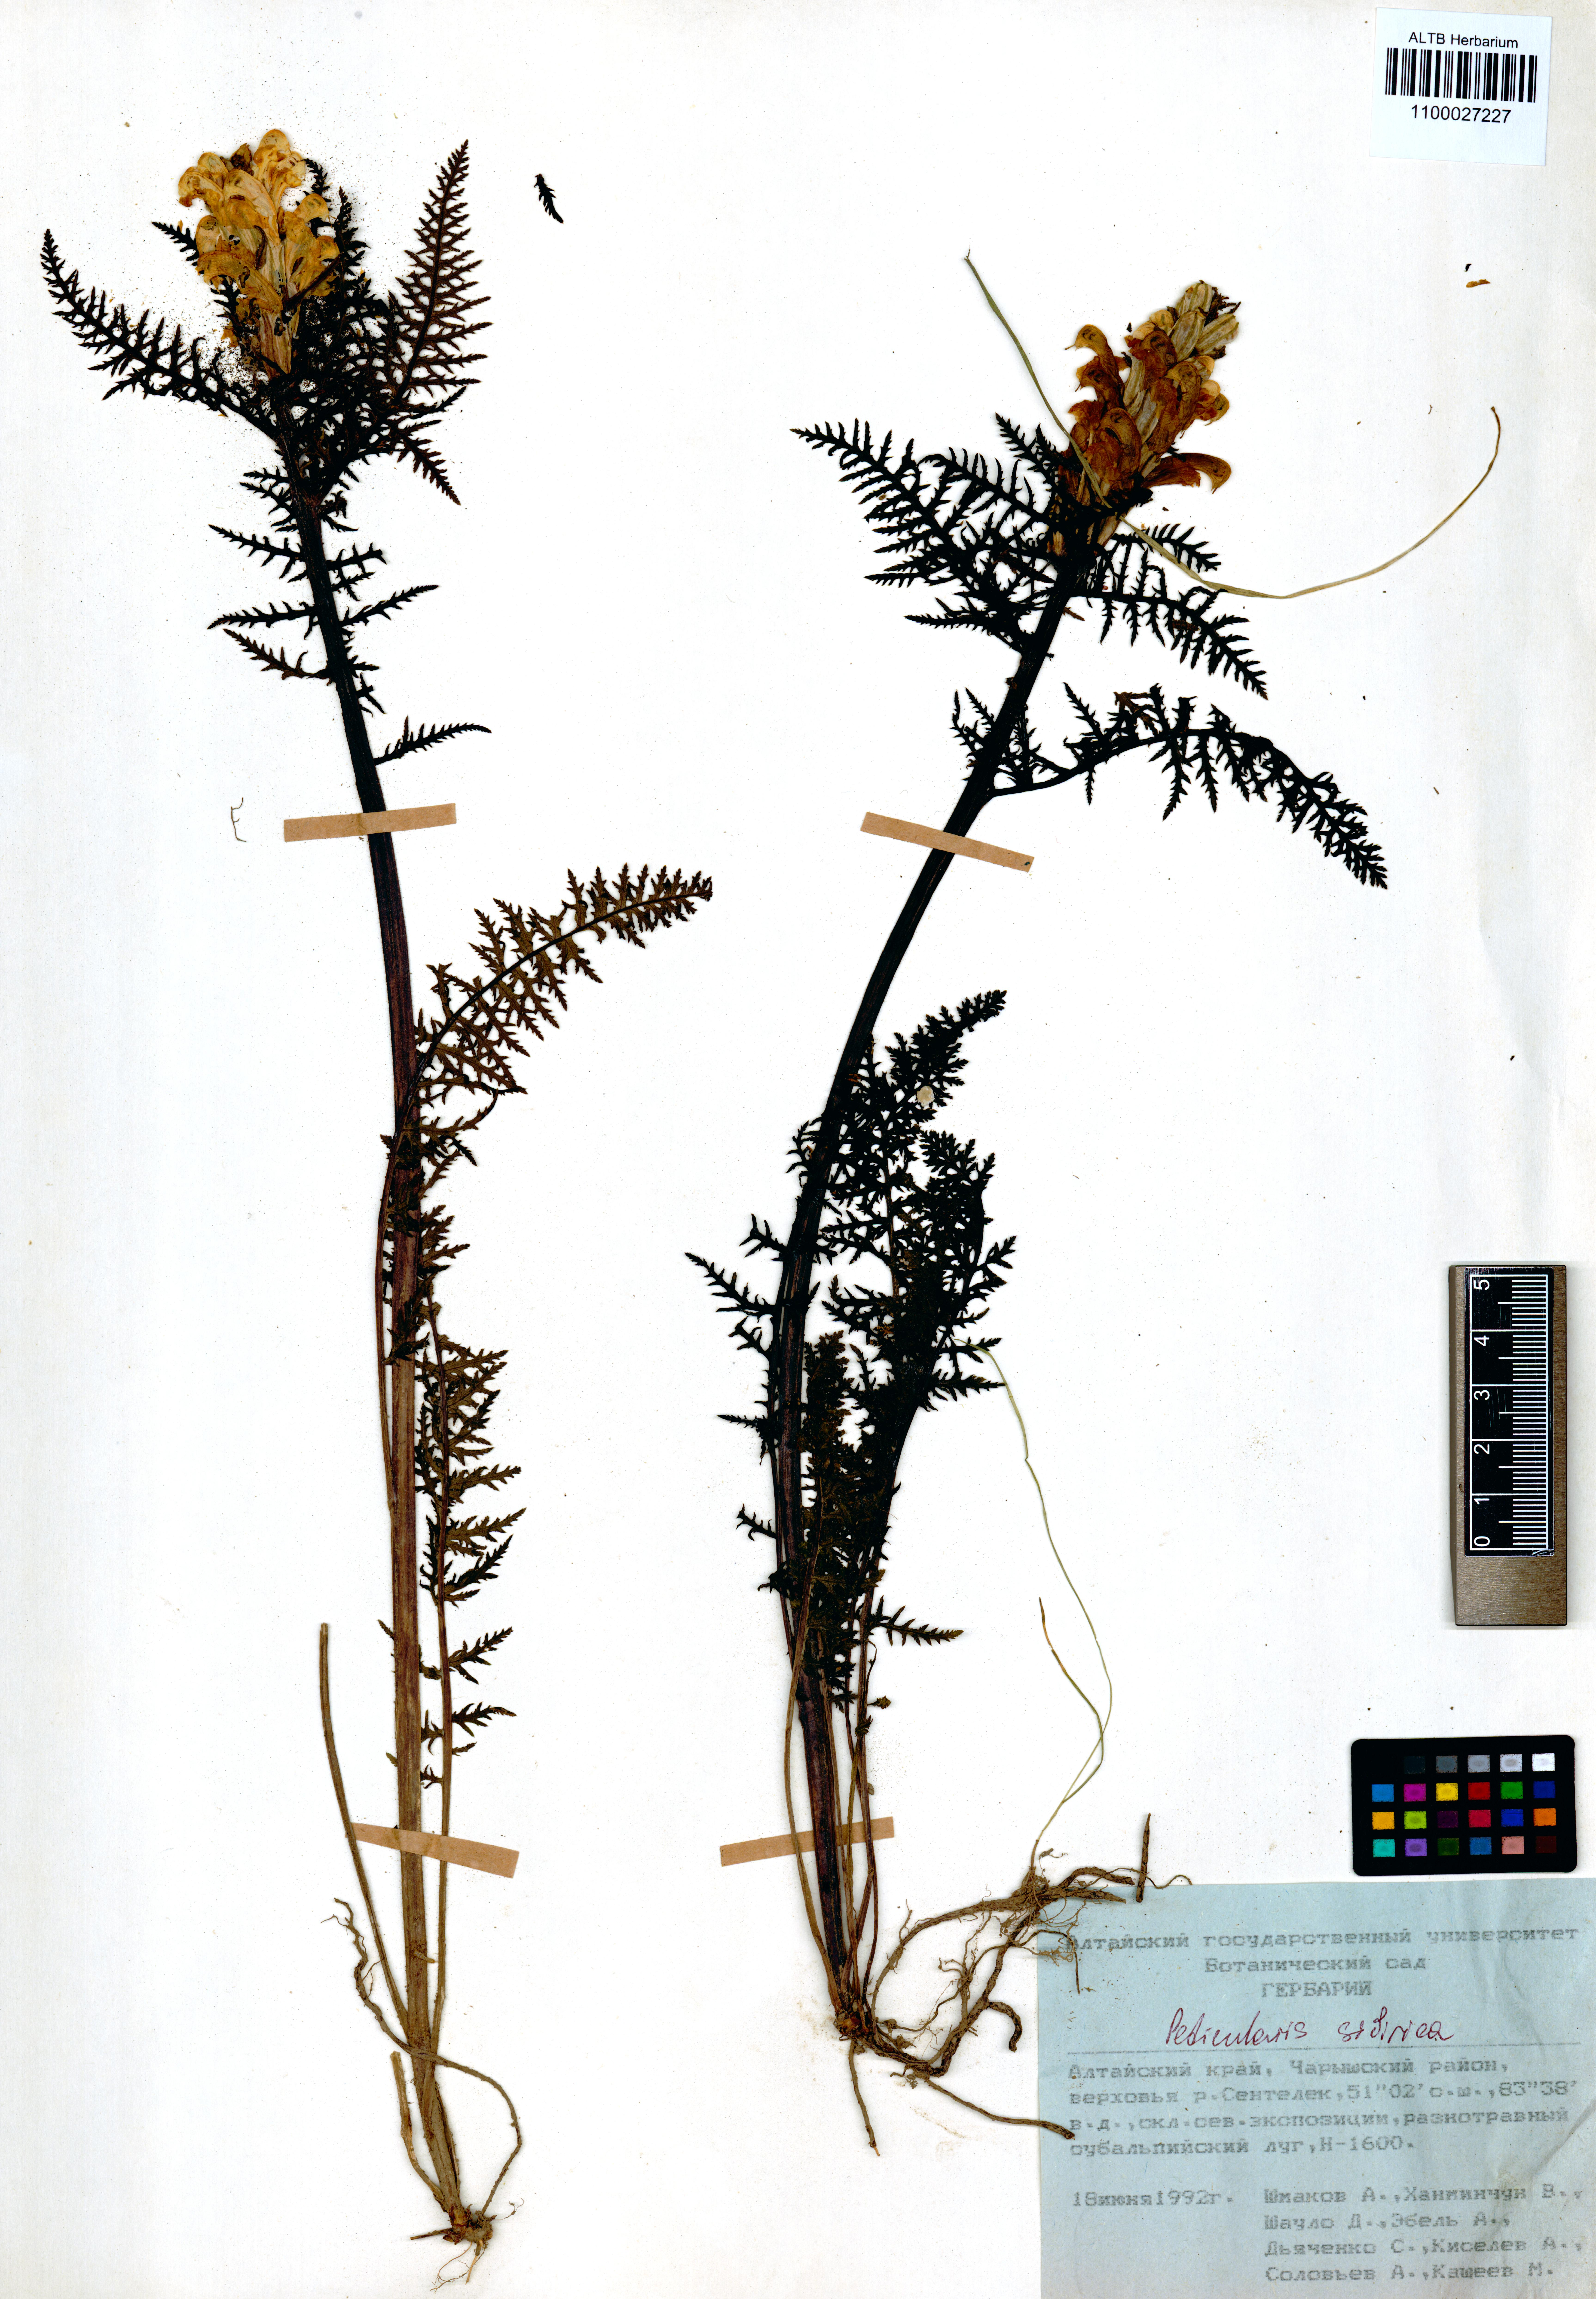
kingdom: Plantae
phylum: Tracheophyta
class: Magnoliopsida
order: Lamiales
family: Orobanchaceae
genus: Pedicularis
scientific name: Pedicularis sibirica
